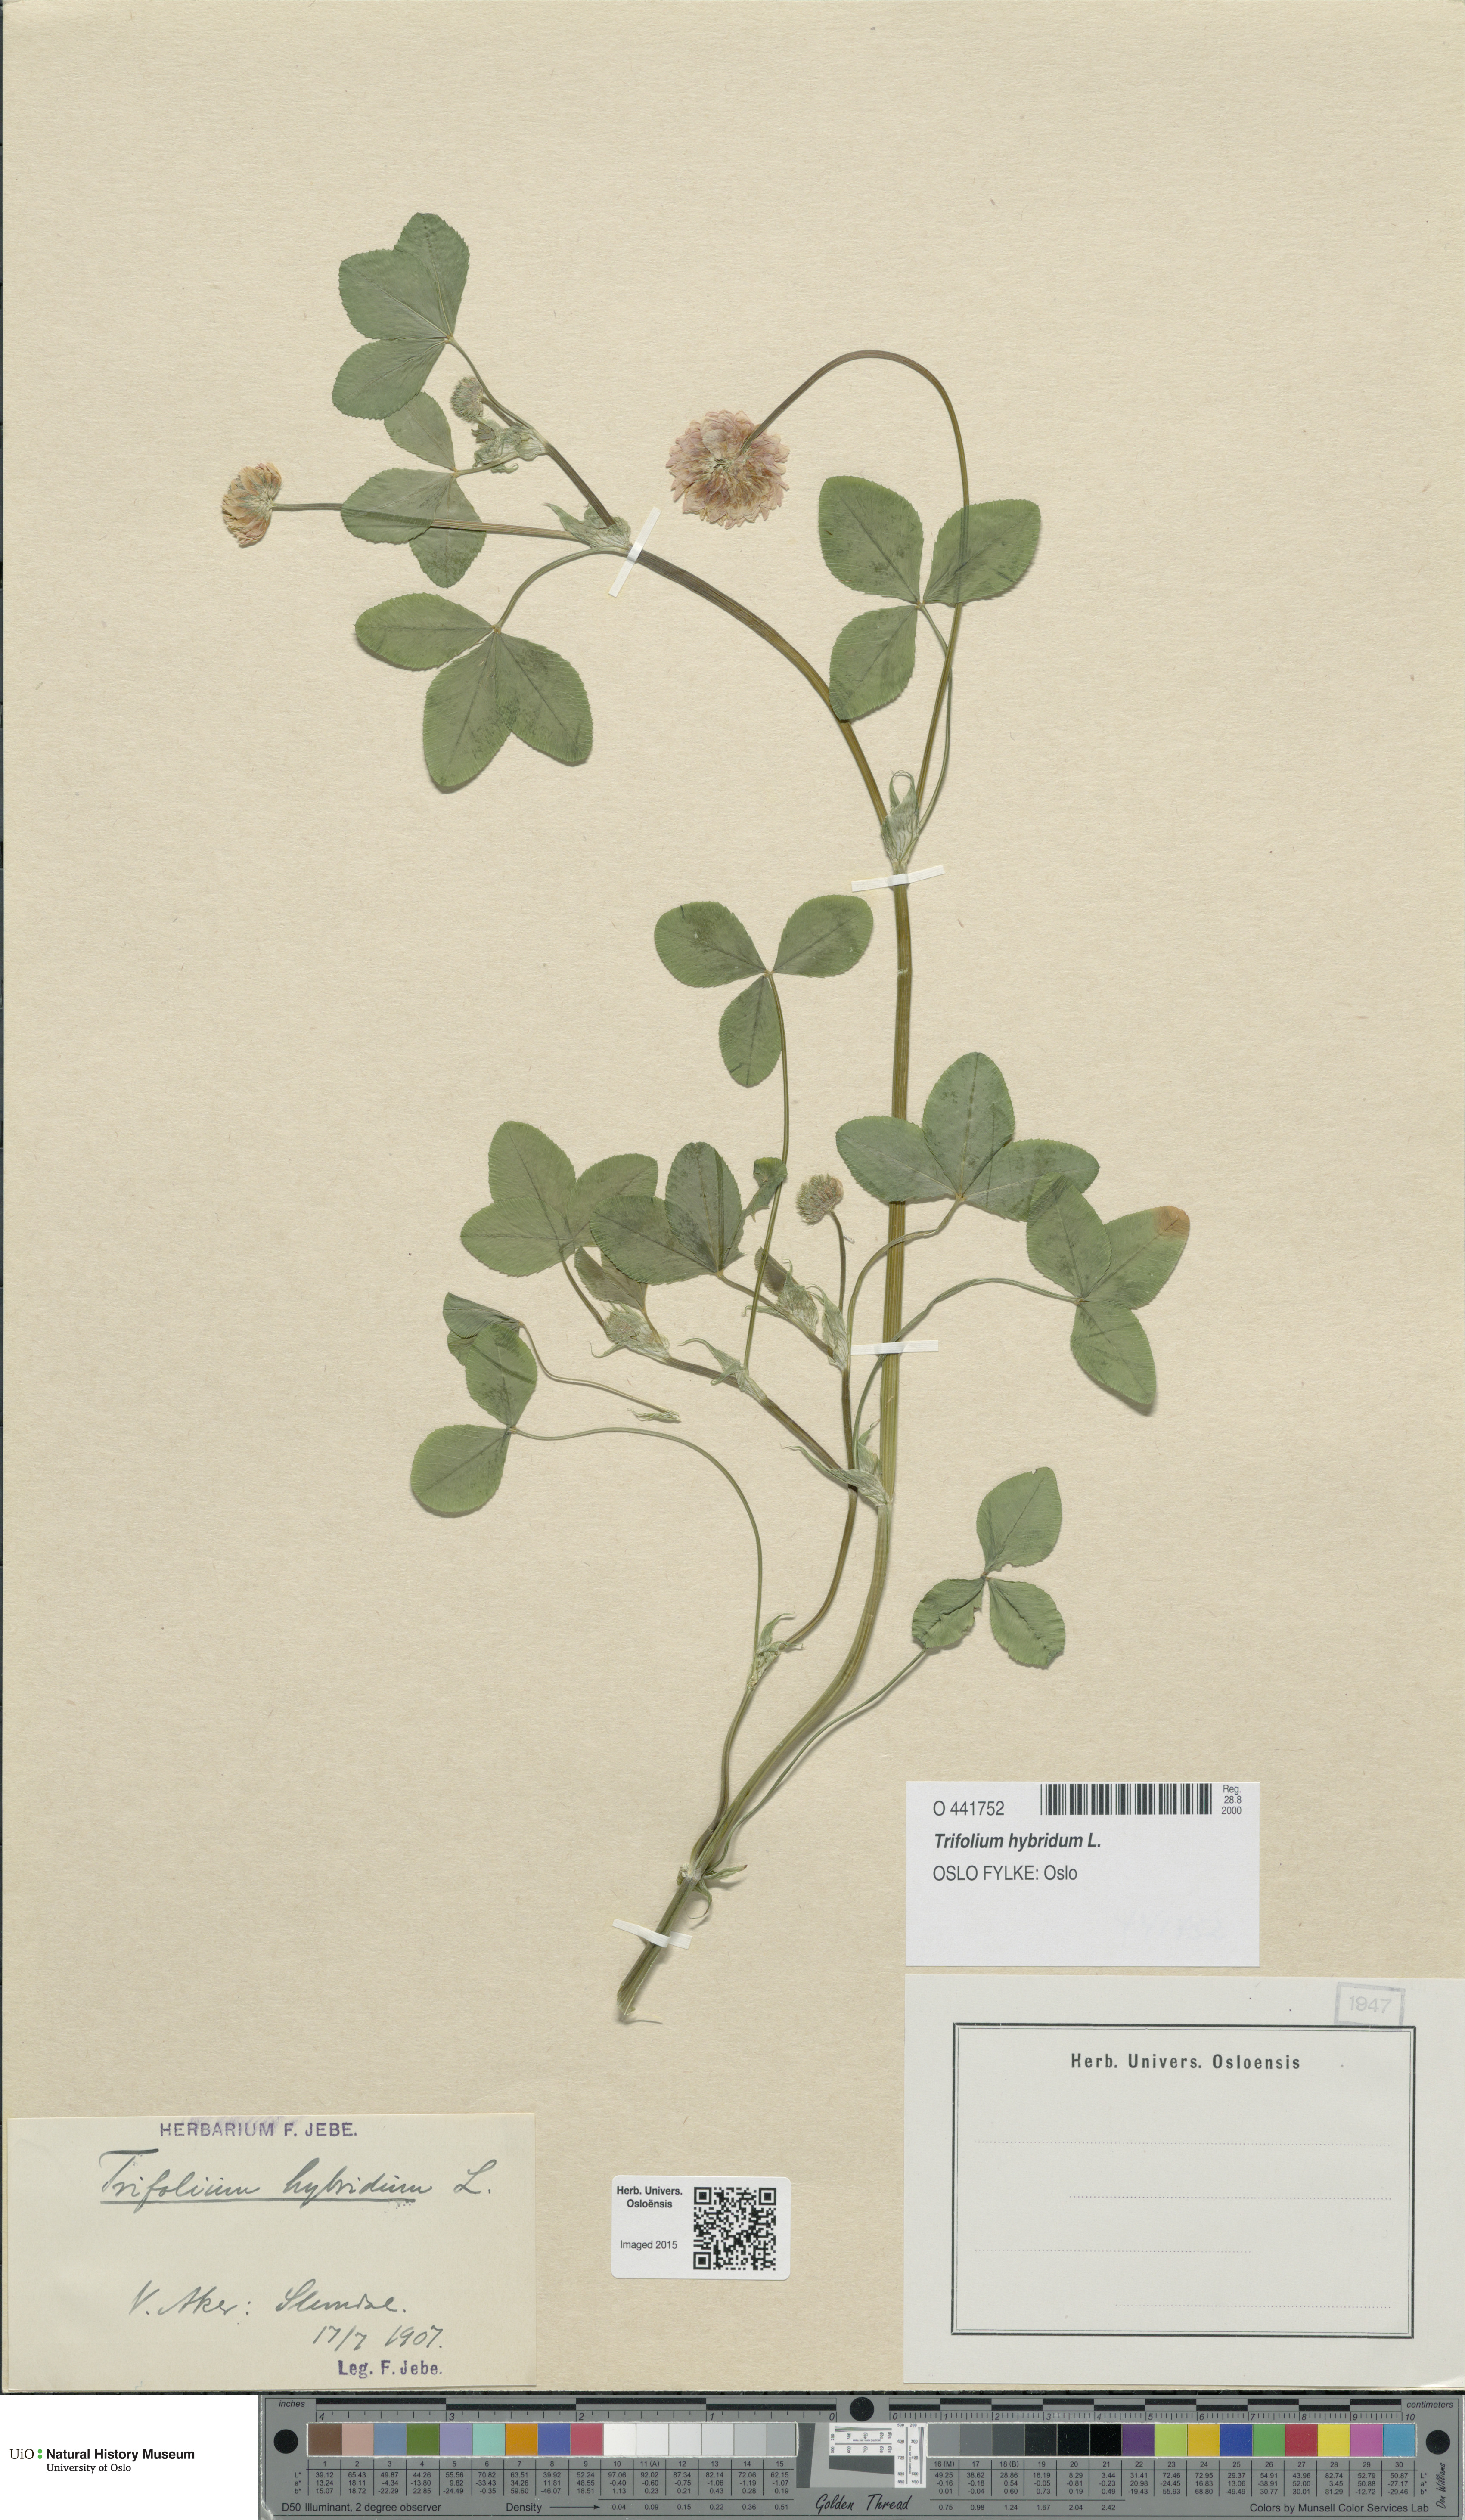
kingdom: Plantae
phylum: Tracheophyta
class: Magnoliopsida
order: Fabales
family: Fabaceae
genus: Trifolium
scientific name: Trifolium hybridum
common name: Alsike clover
